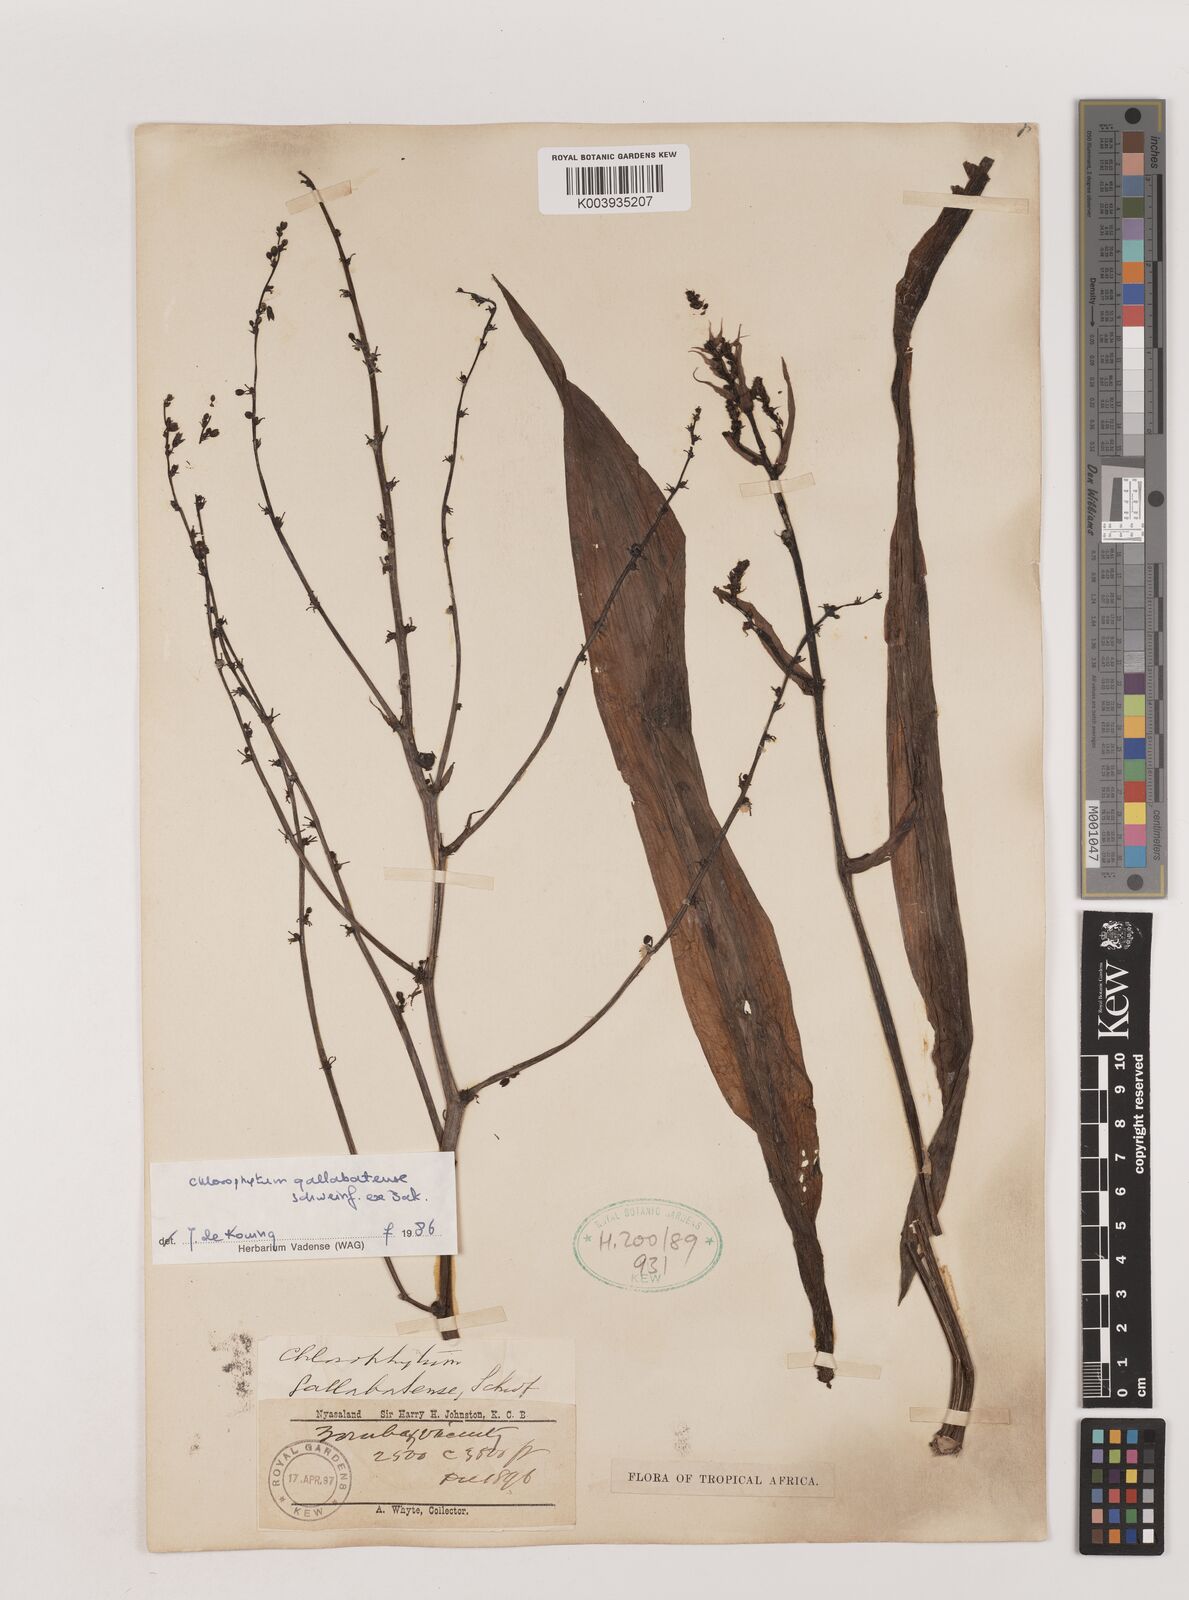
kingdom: Plantae
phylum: Tracheophyta
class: Liliopsida
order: Asparagales
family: Asparagaceae
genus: Chlorophytum
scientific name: Chlorophytum gallabatense
